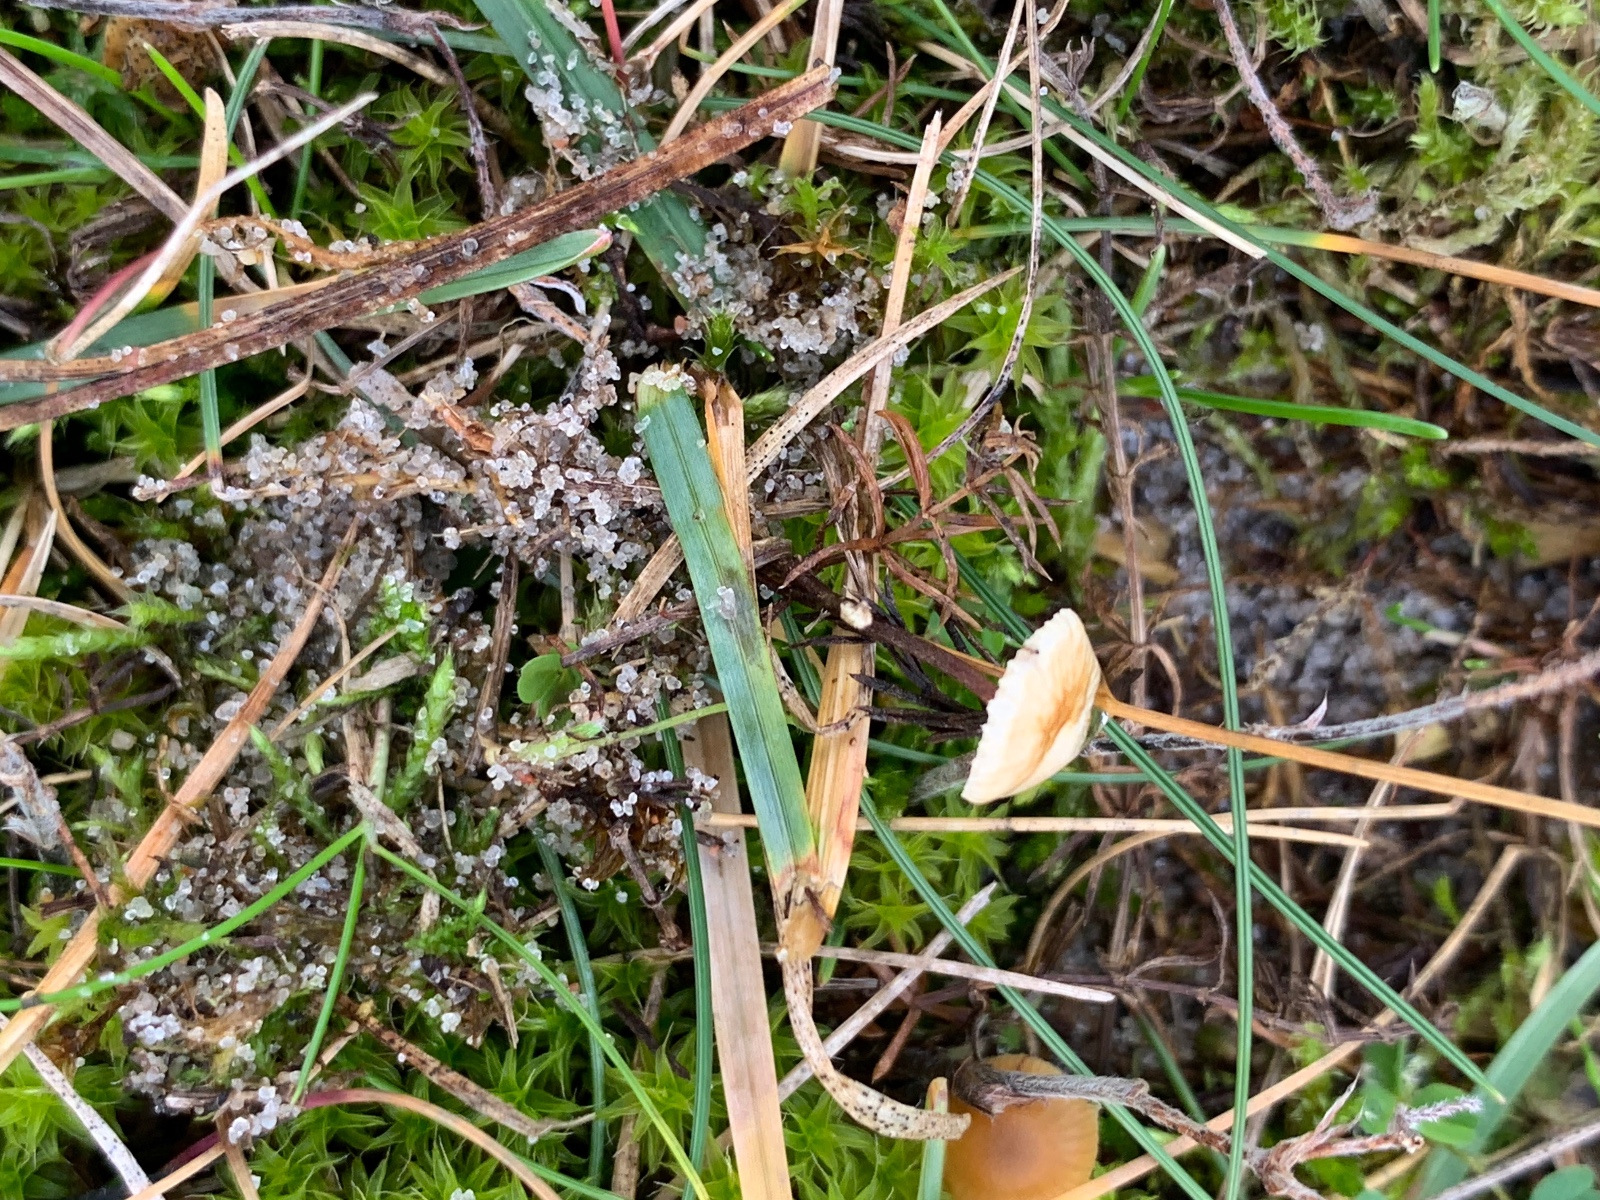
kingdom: Fungi
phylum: Basidiomycota
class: Agaricomycetes
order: Agaricales
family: Marasmiaceae
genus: Crinipellis
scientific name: Crinipellis scabella
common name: børstefod
